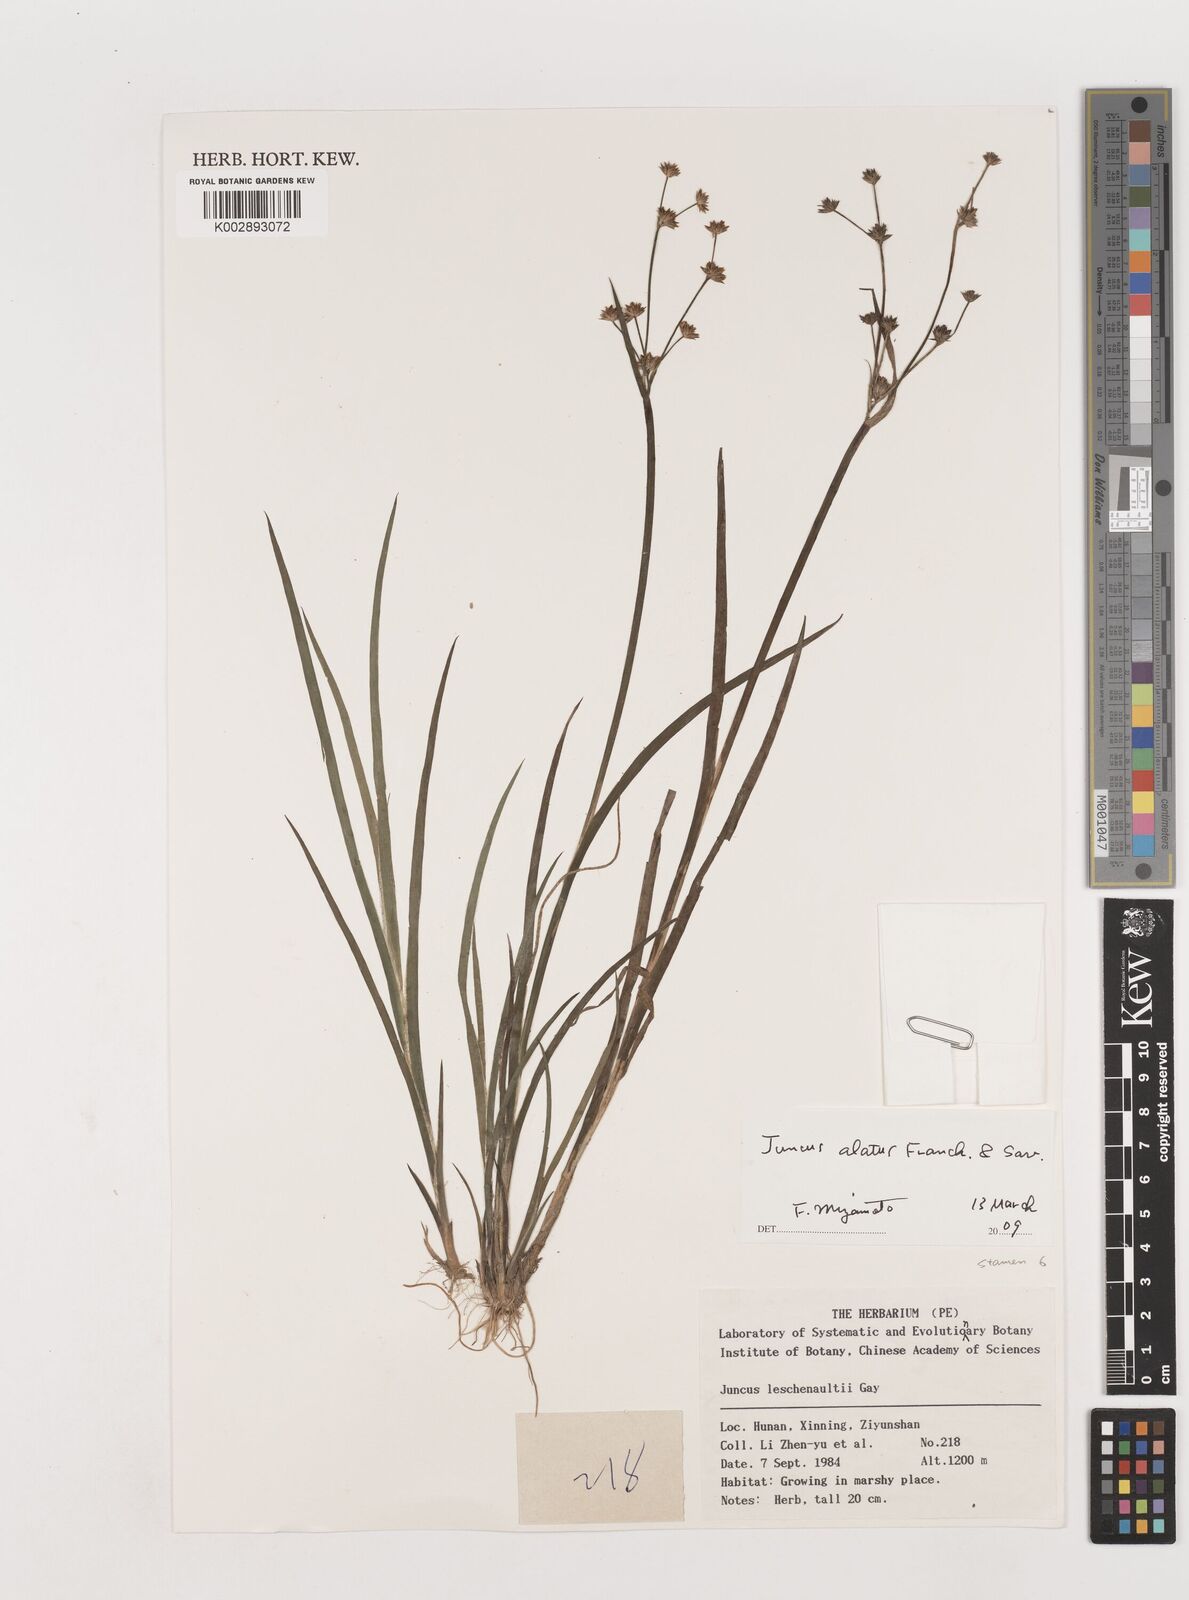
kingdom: Plantae
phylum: Tracheophyta
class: Liliopsida
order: Poales
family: Juncaceae
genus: Juncus
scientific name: Juncus prismatocarpus
